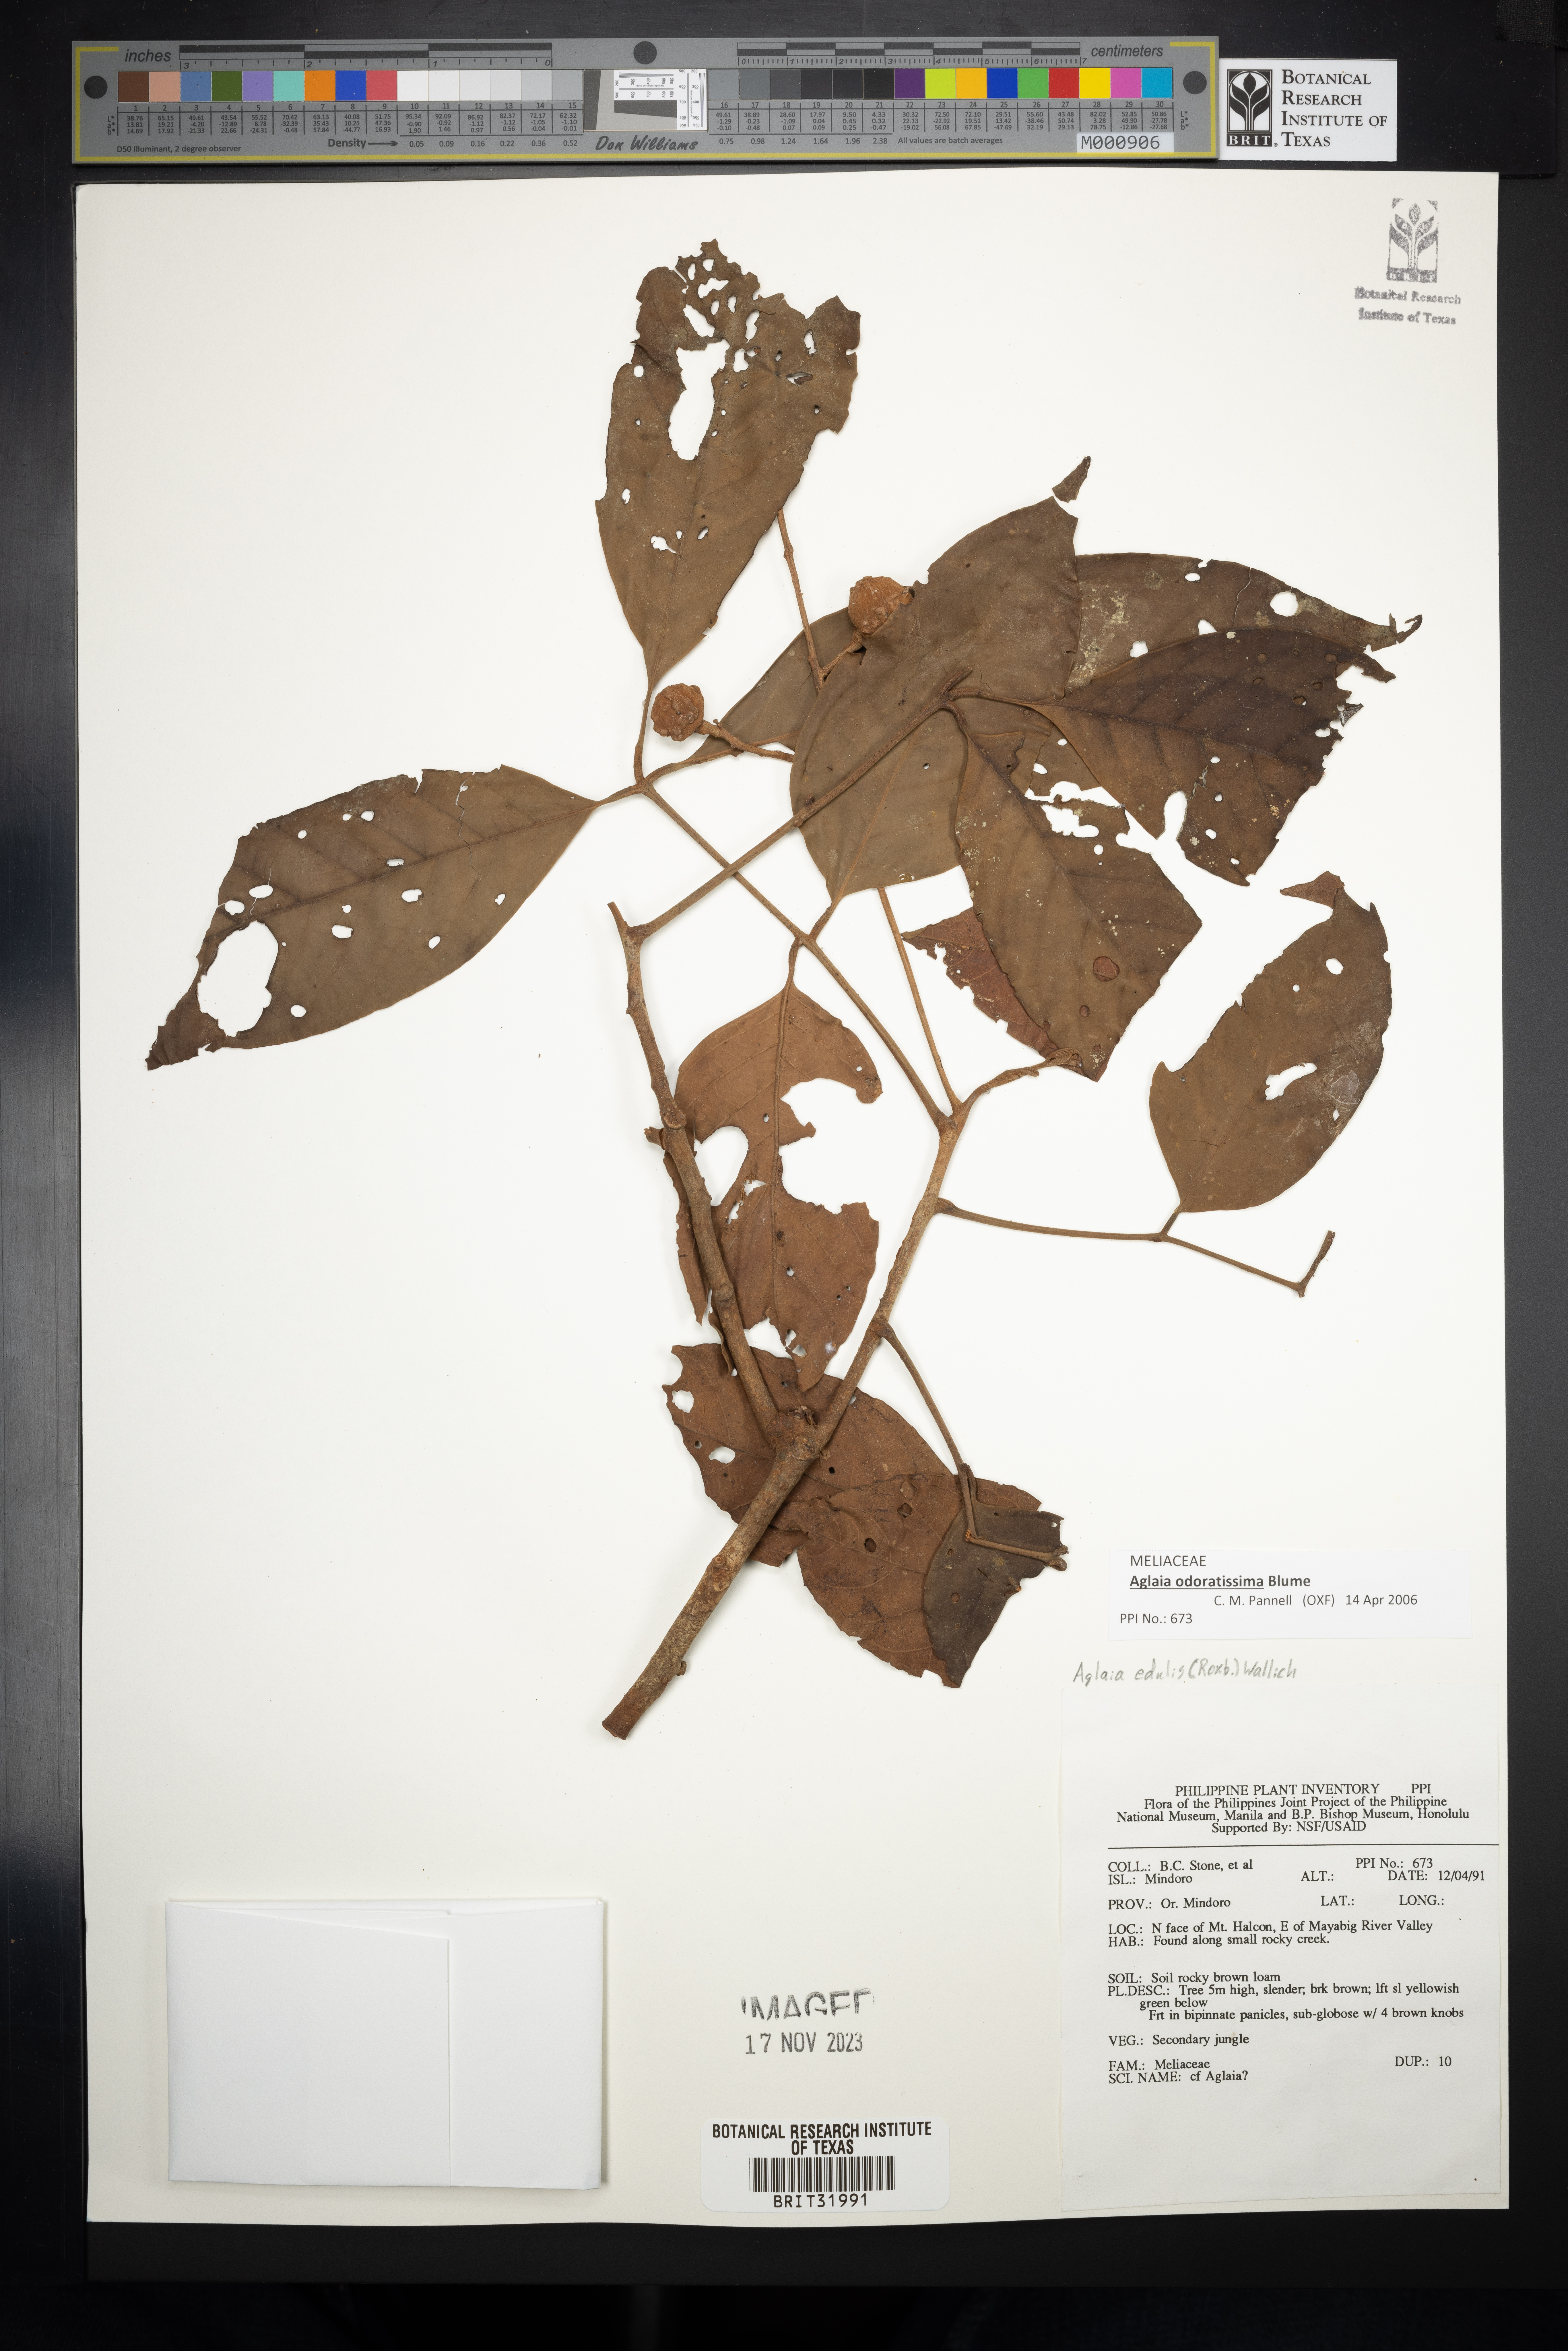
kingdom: Plantae
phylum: Tracheophyta
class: Magnoliopsida
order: Sapindales
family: Meliaceae
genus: Aglaia
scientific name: Aglaia edulis
